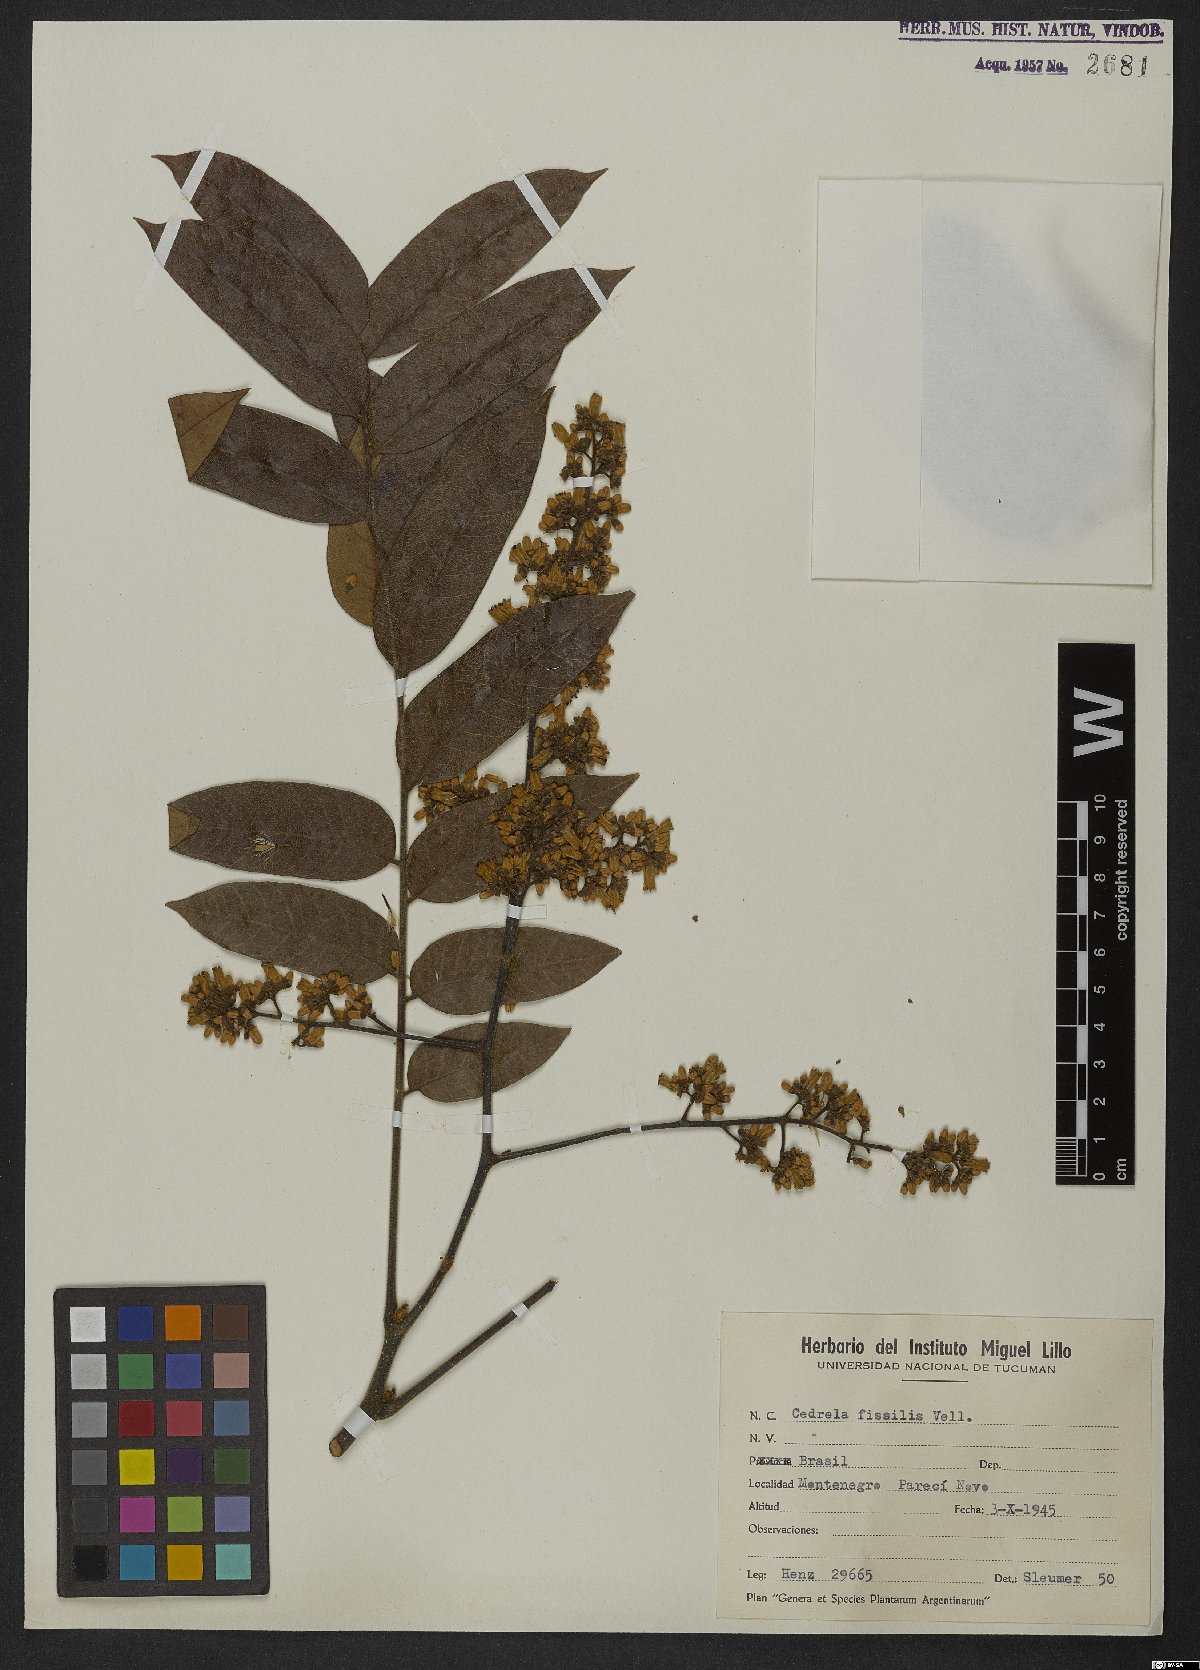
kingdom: Plantae
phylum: Tracheophyta
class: Magnoliopsida
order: Sapindales
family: Meliaceae
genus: Cedrela
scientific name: Cedrela fissilis
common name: Argentine cedar
